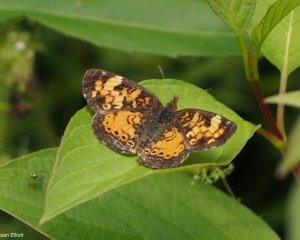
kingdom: Animalia
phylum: Arthropoda
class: Insecta
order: Lepidoptera
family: Nymphalidae
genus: Phyciodes
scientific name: Phyciodes
